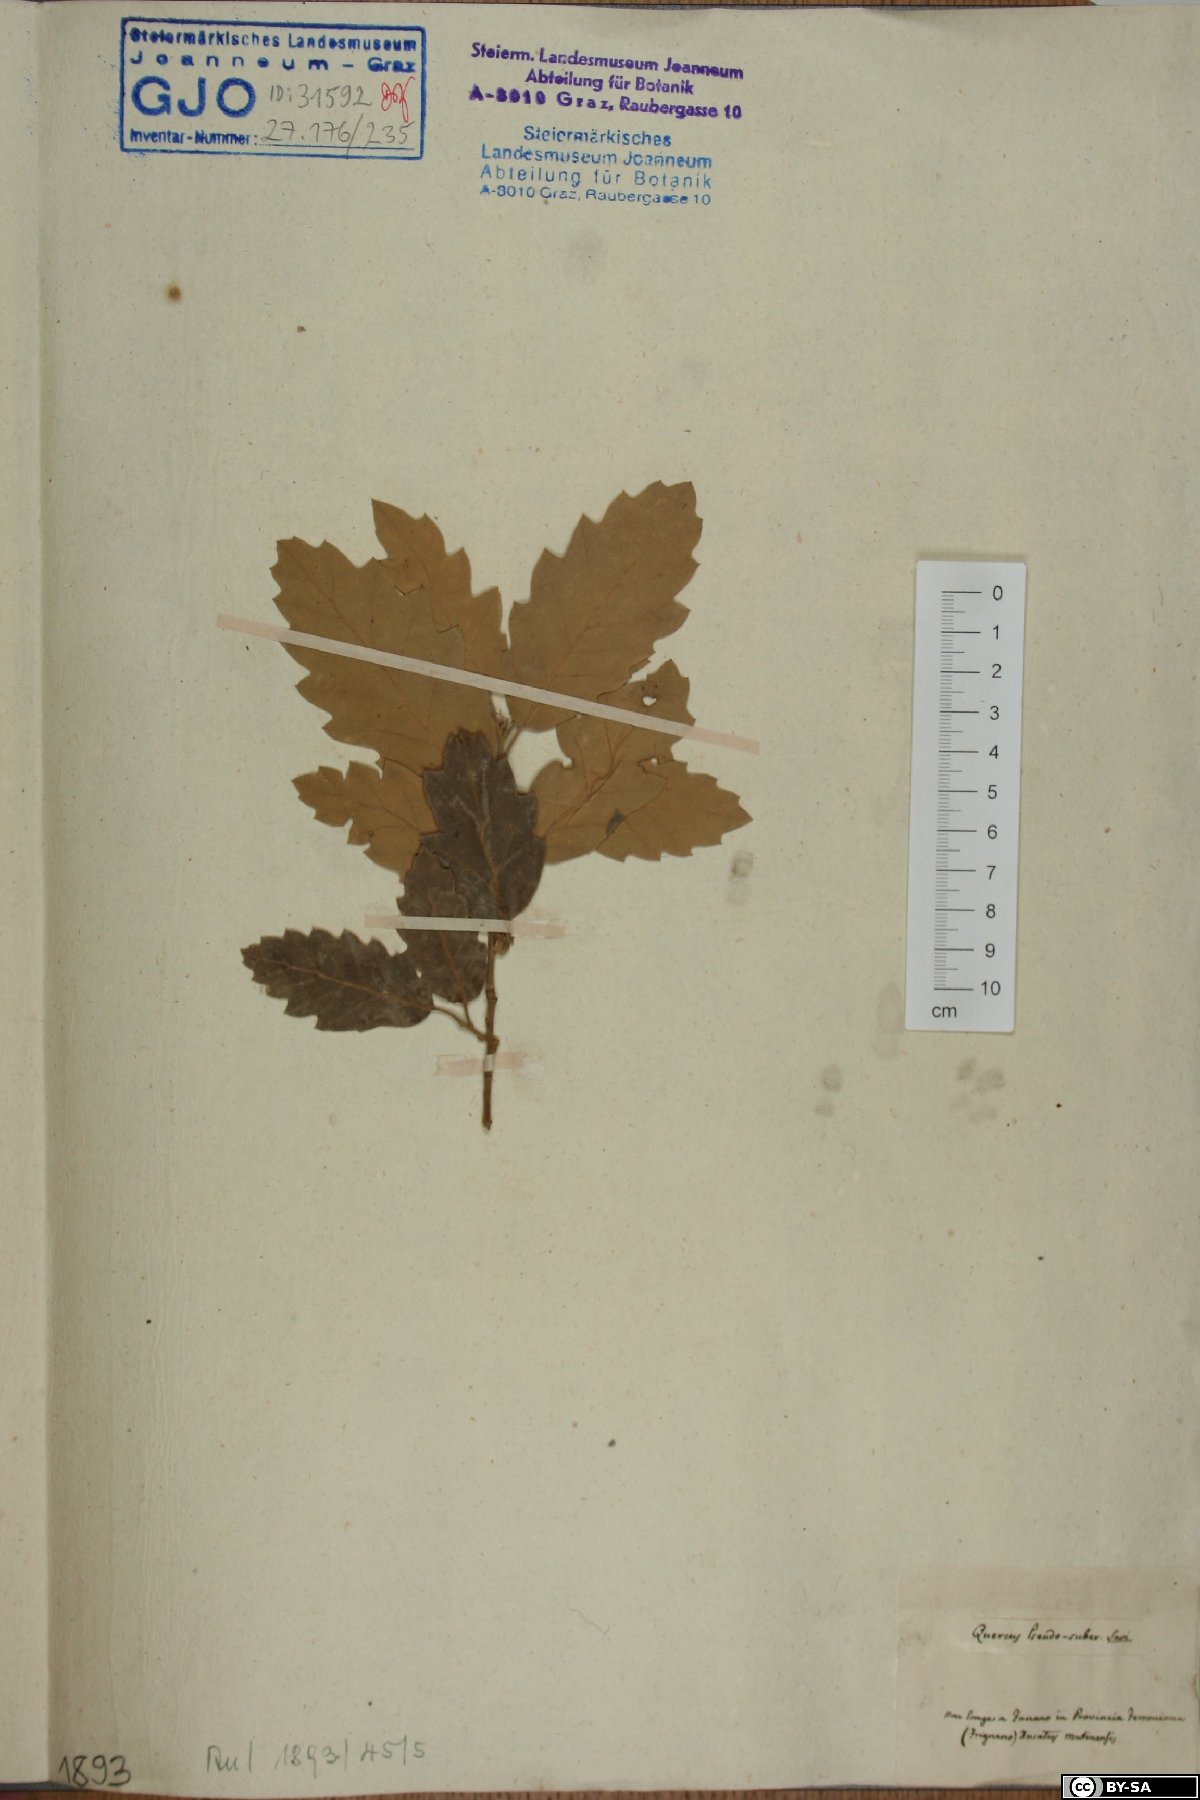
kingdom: Plantae
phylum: Tracheophyta
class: Magnoliopsida
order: Fagales
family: Fagaceae
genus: Quercus
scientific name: Quercus crenata
